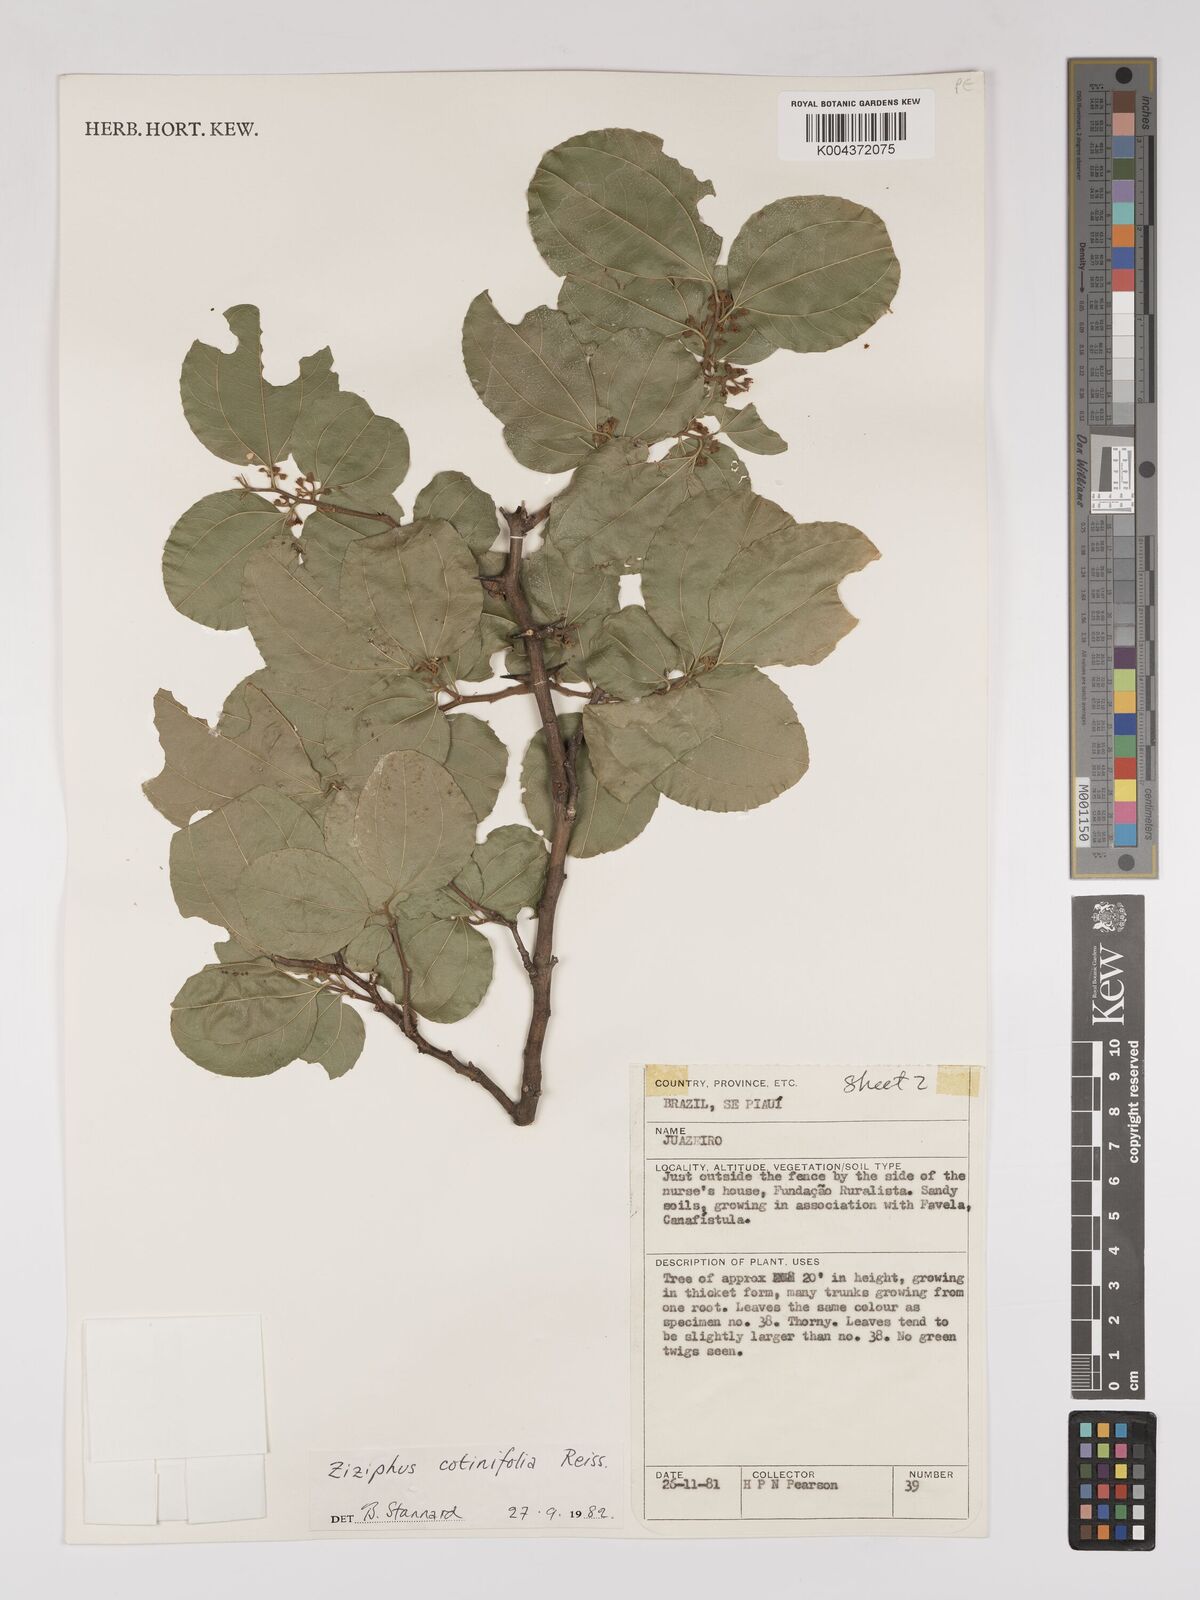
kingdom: Plantae
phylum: Tracheophyta
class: Magnoliopsida
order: Rosales
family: Rhamnaceae
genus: Sarcomphalus
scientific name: Sarcomphalus cotinifolius
